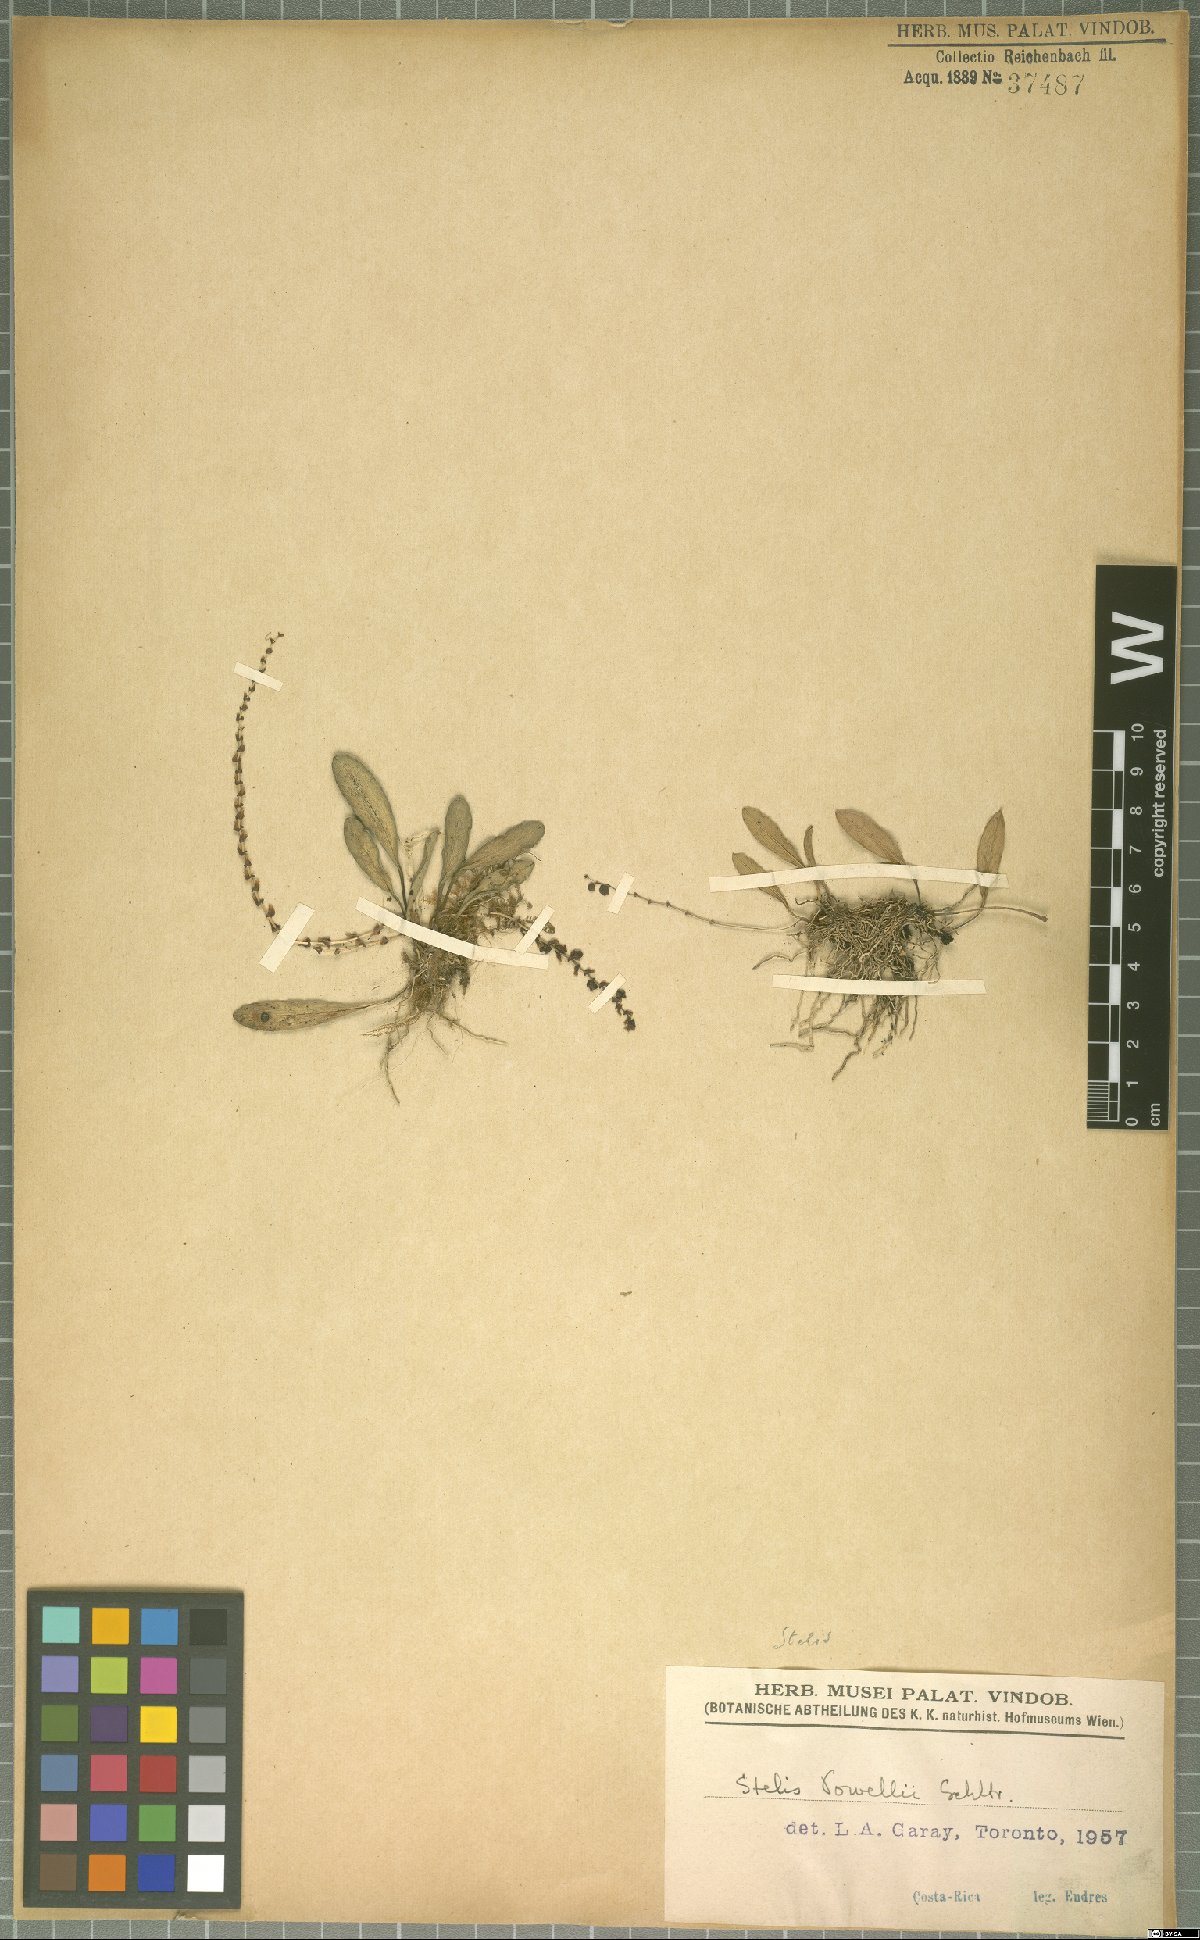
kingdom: Plantae
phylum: Tracheophyta
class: Liliopsida
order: Asparagales
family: Orchidaceae
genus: Stelis
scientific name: Stelis powellii
